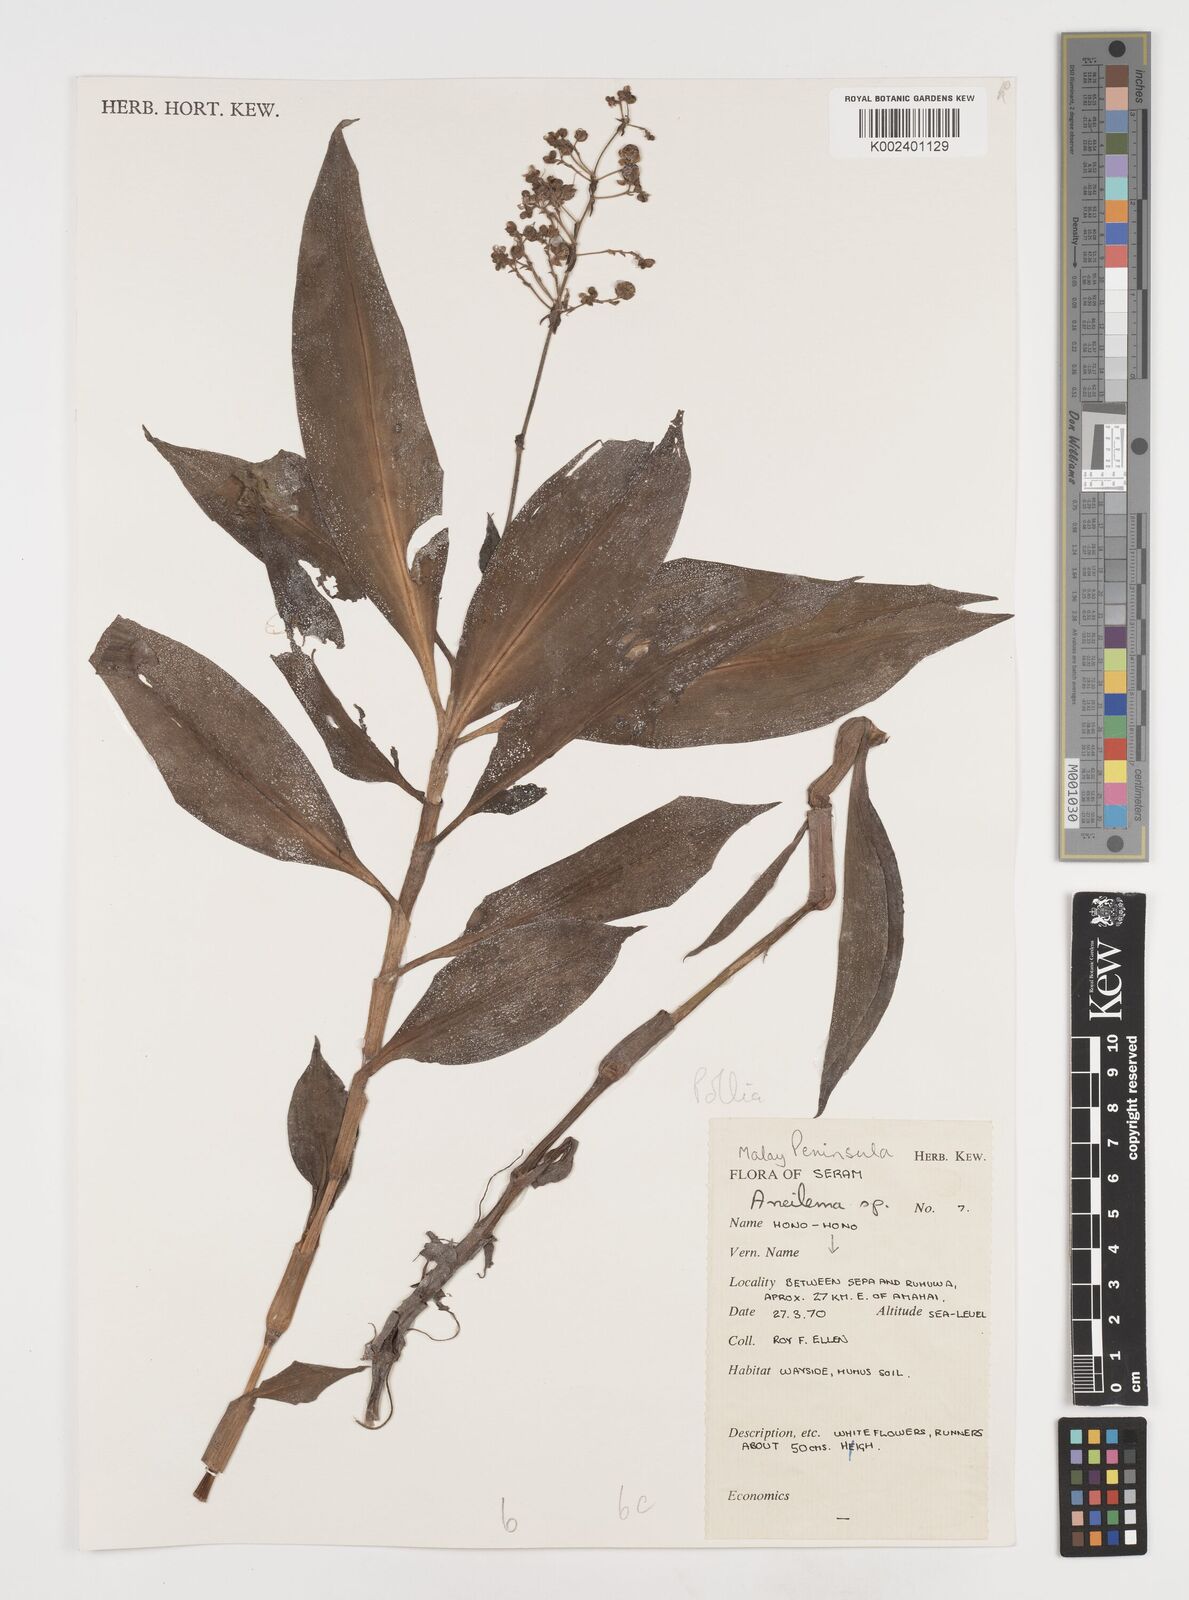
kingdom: Plantae
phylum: Tracheophyta
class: Liliopsida
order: Commelinales
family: Commelinaceae
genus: Pollia
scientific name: Pollia subumbellata
